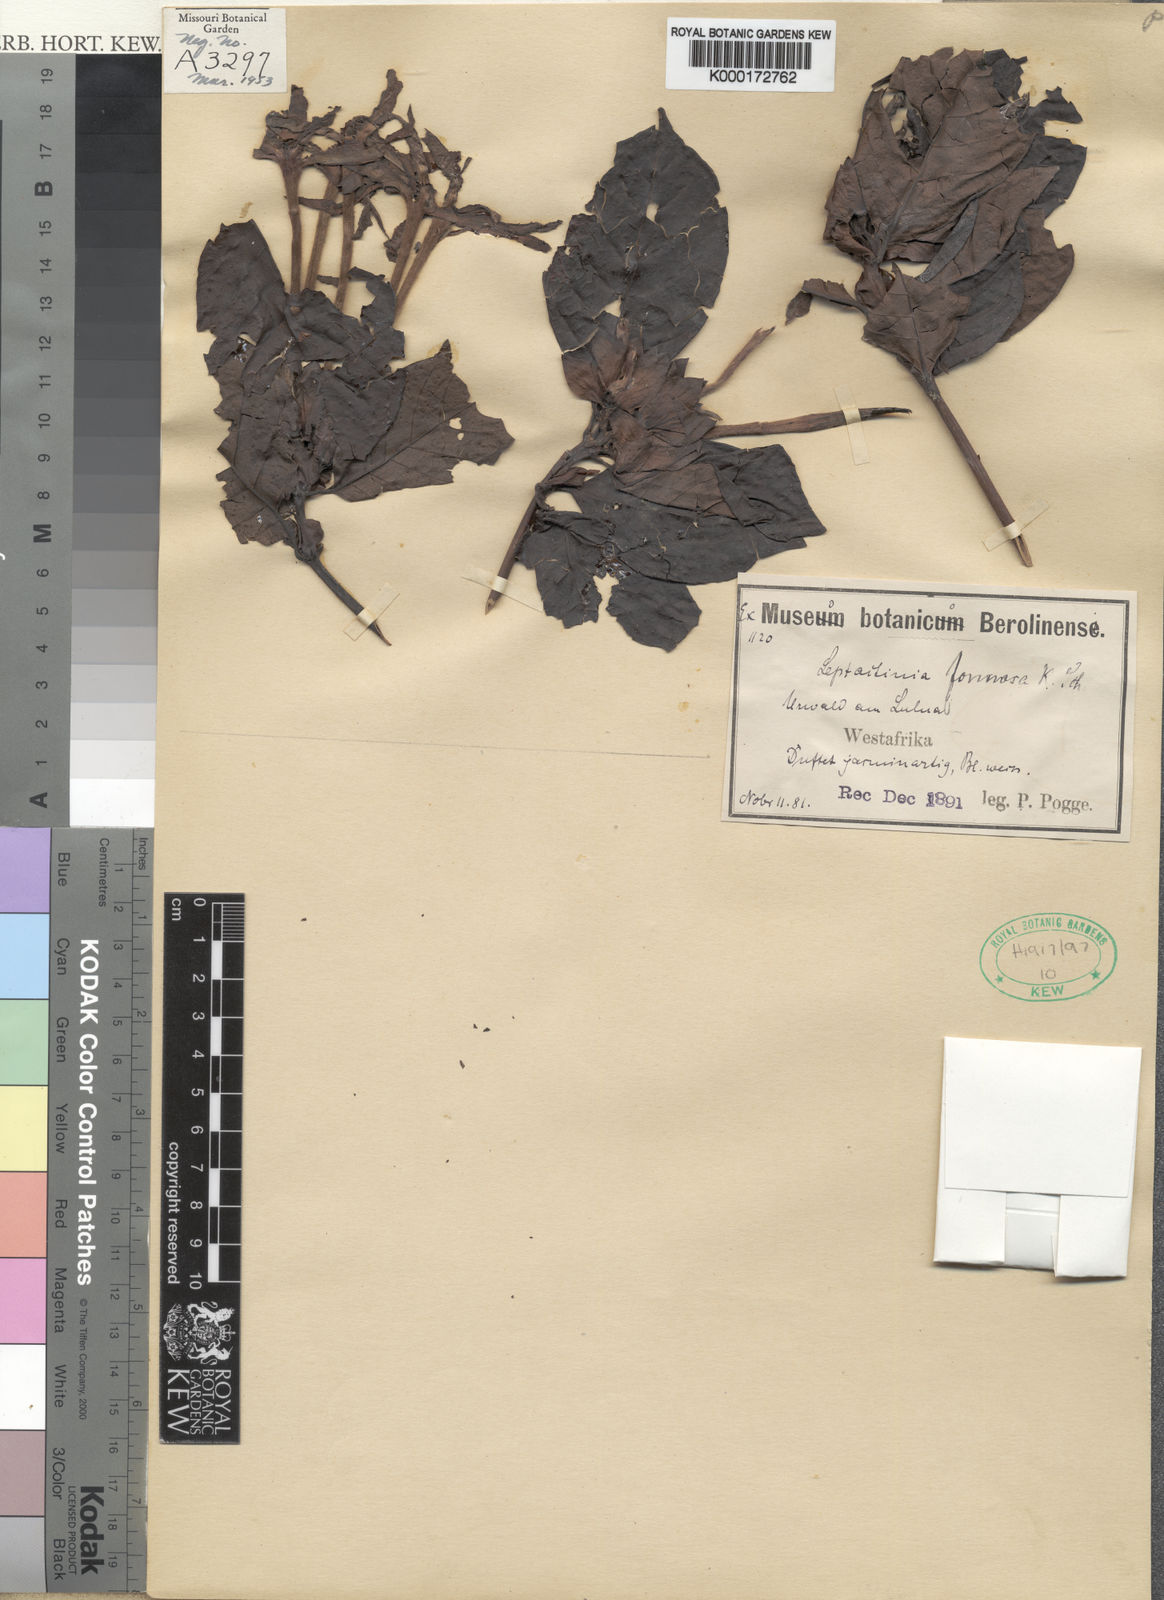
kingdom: Plantae
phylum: Tracheophyta
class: Magnoliopsida
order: Gentianales
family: Rubiaceae
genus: Leptactina
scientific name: Leptactina formosa
